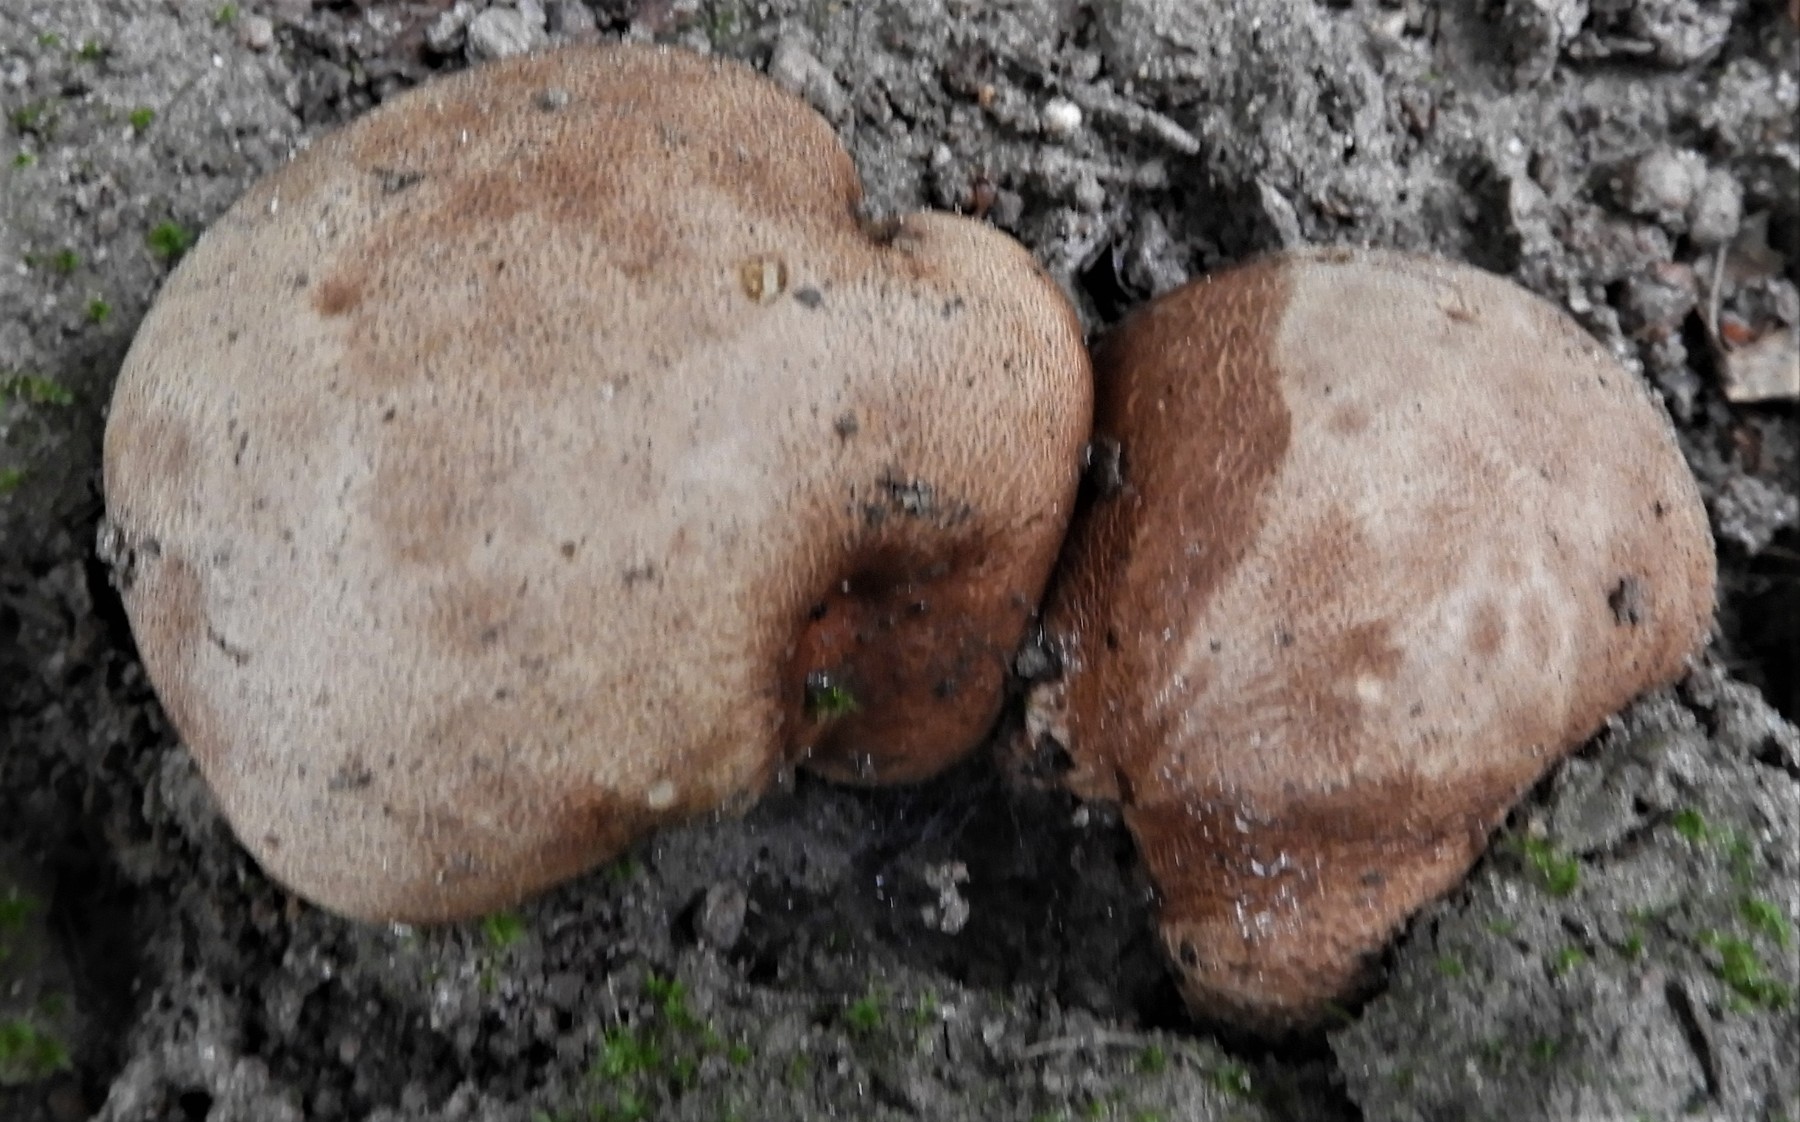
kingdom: Fungi
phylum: Basidiomycota
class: Agaricomycetes
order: Boletales
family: Sclerodermataceae
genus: Scleroderma
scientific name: Scleroderma
